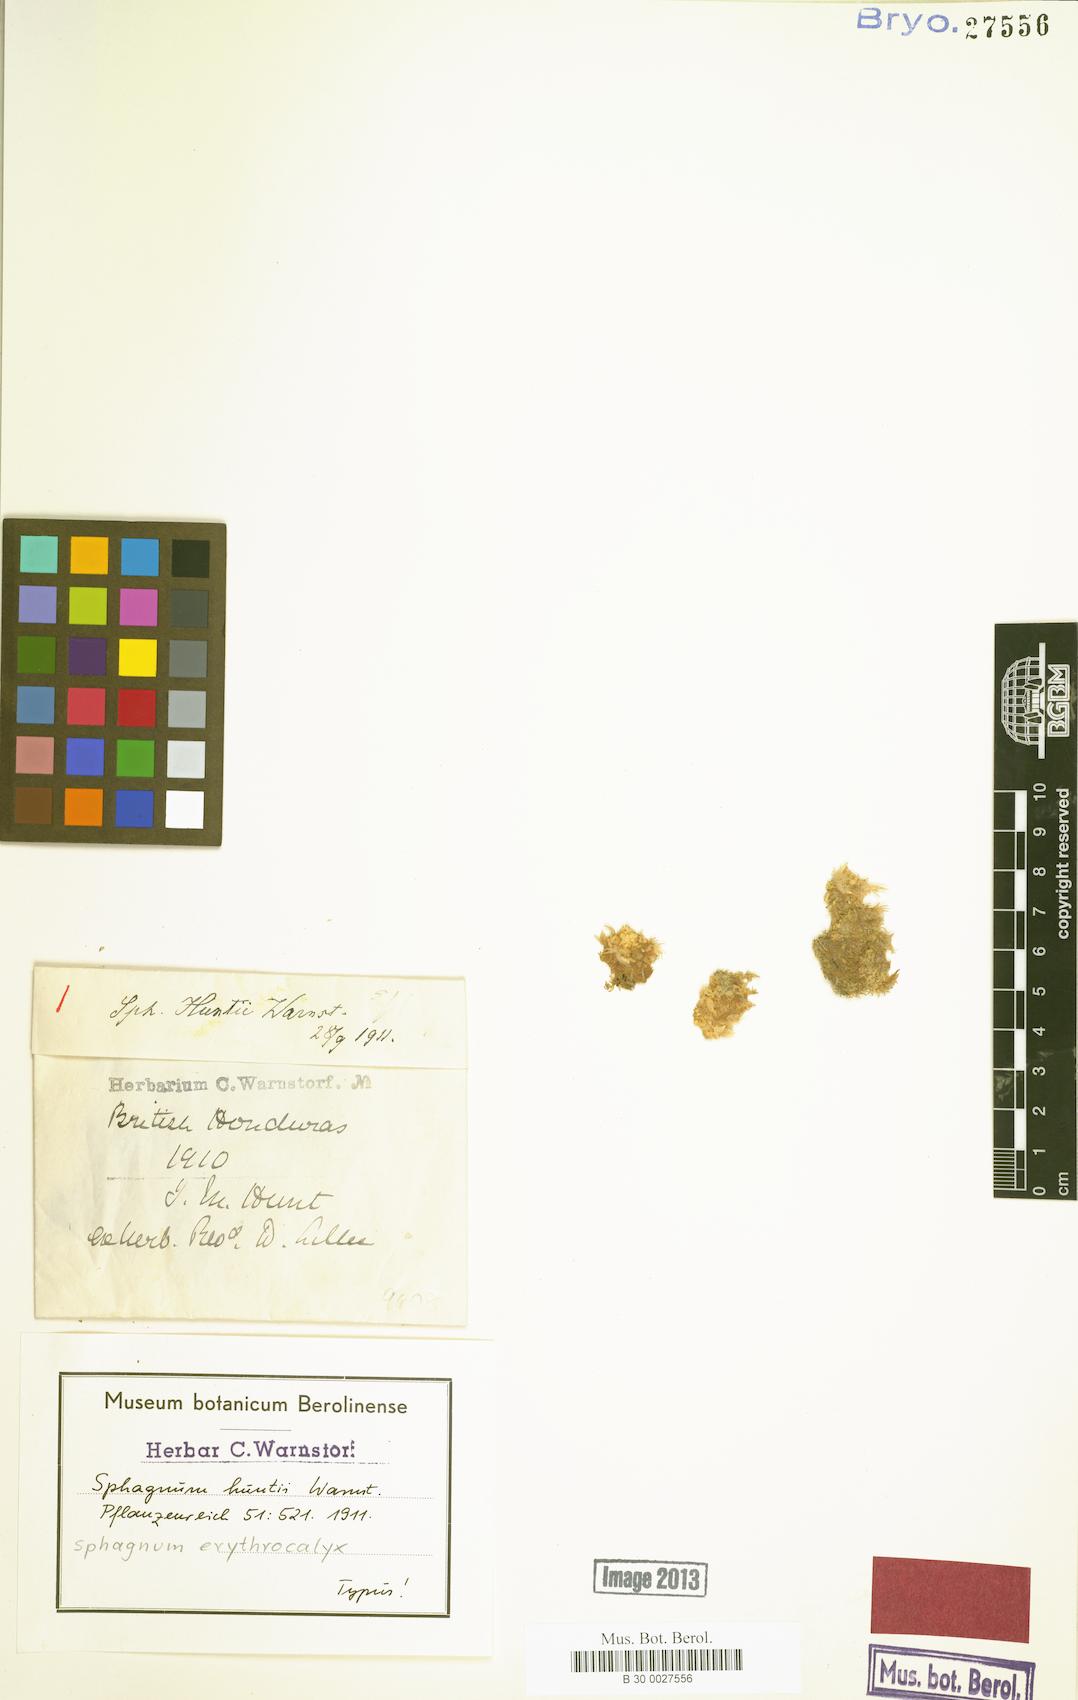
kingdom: Plantae
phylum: Bryophyta
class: Sphagnopsida
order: Sphagnales
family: Sphagnaceae
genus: Sphagnum
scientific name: Sphagnum perichaetiale
